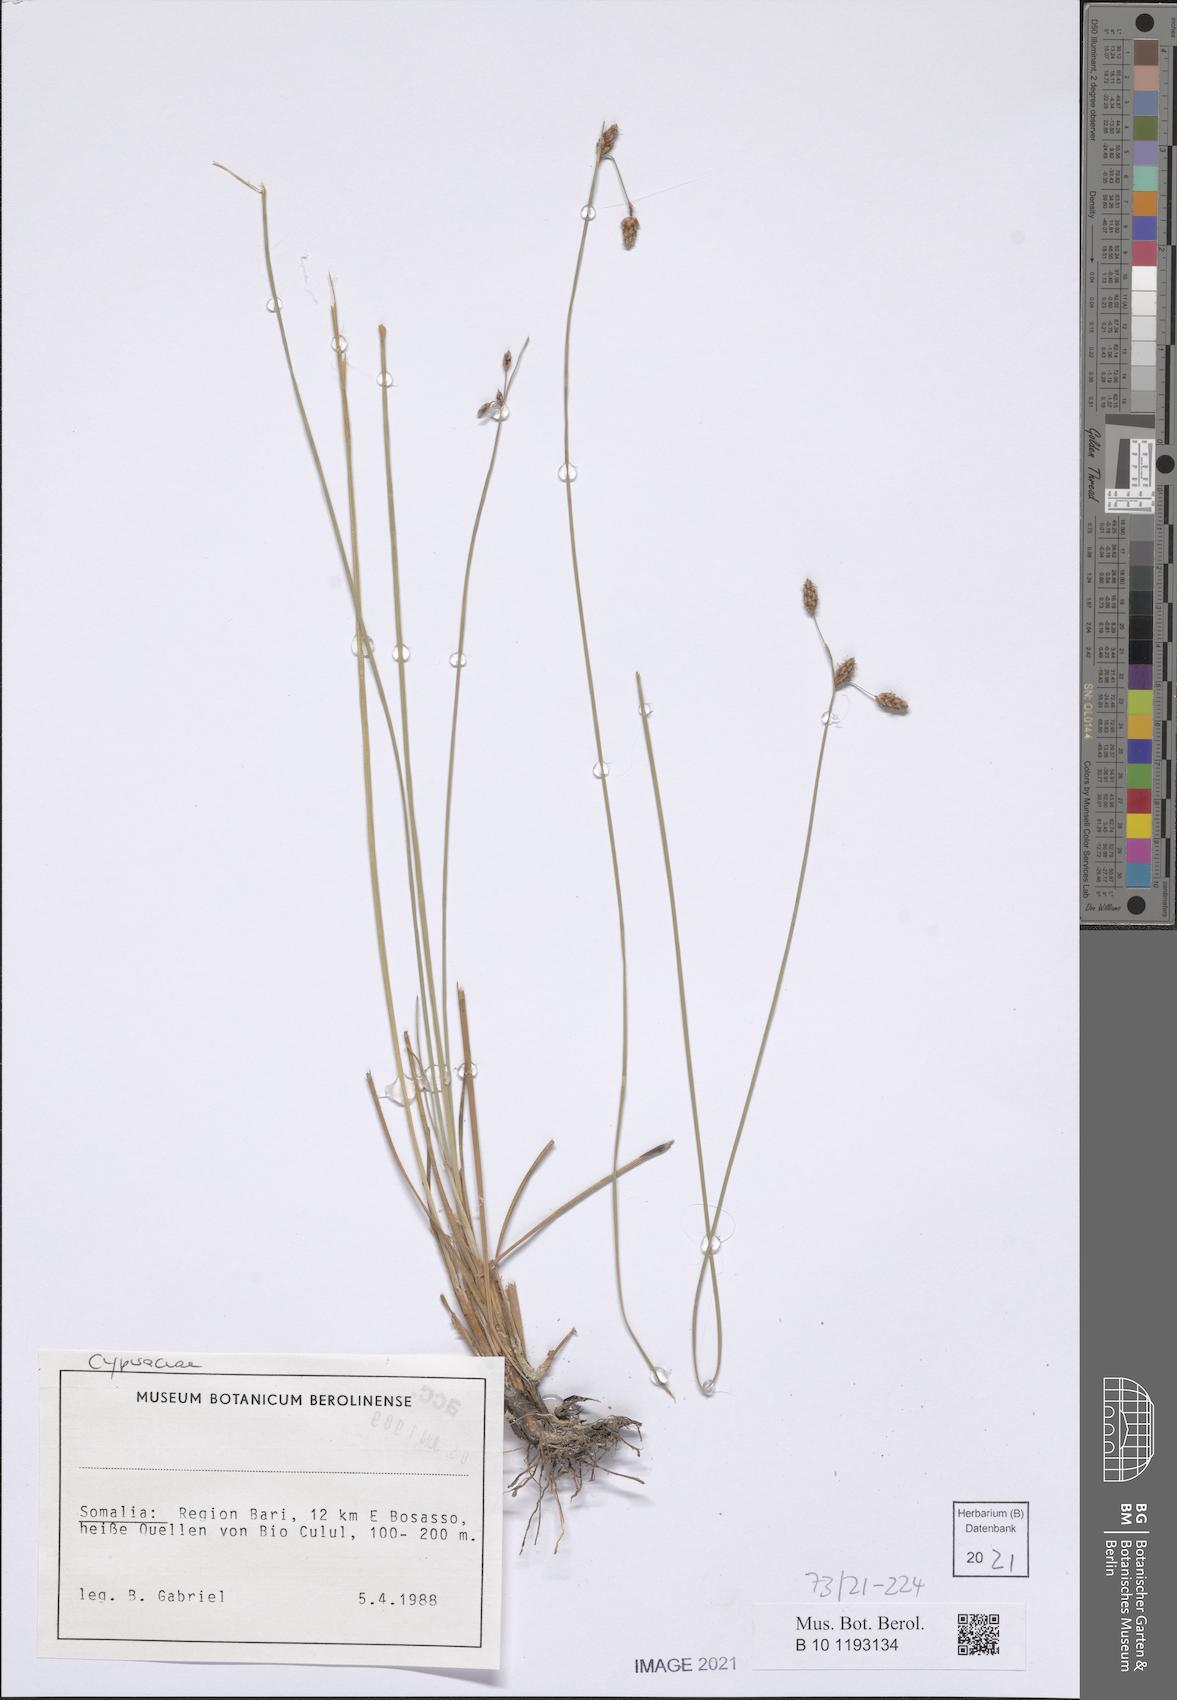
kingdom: Plantae
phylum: Tracheophyta
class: Liliopsida
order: Poales
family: Cyperaceae
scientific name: Cyperaceae
